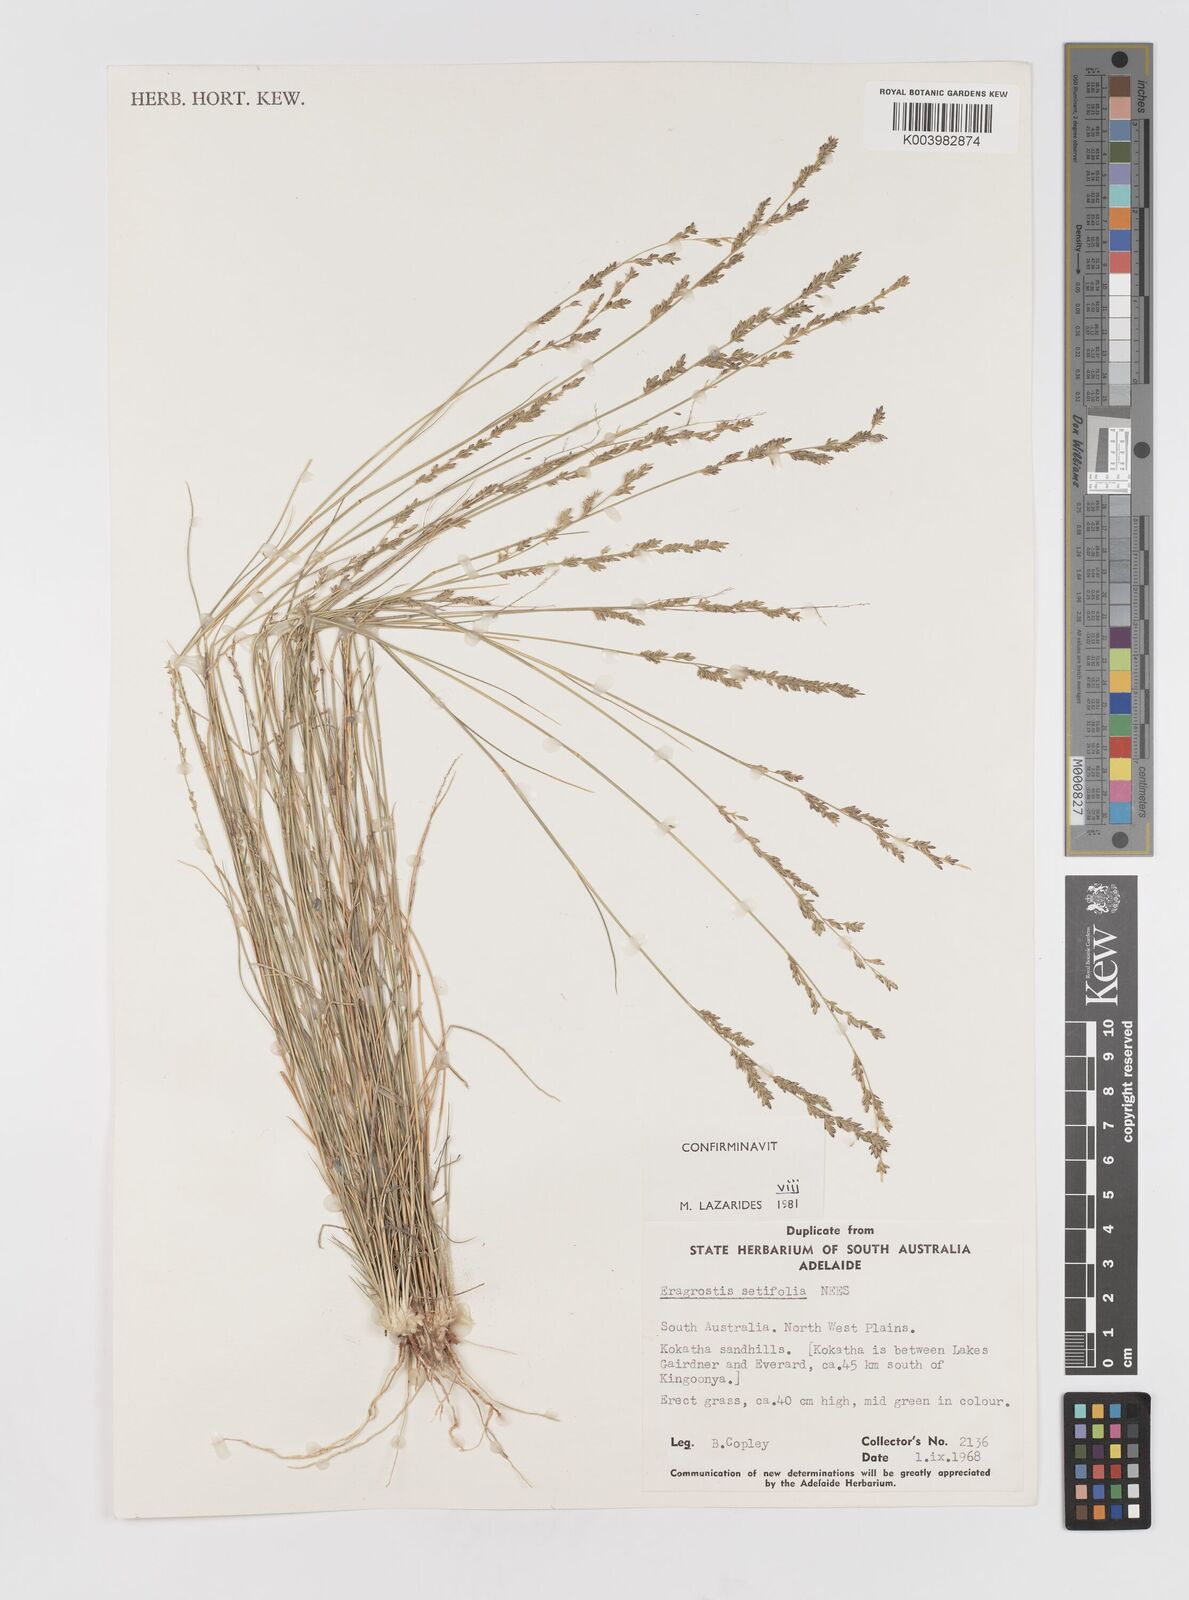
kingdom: Plantae
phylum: Tracheophyta
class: Liliopsida
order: Poales
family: Poaceae
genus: Eragrostis
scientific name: Eragrostis setifolia
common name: Bristleleaf lovegrass
